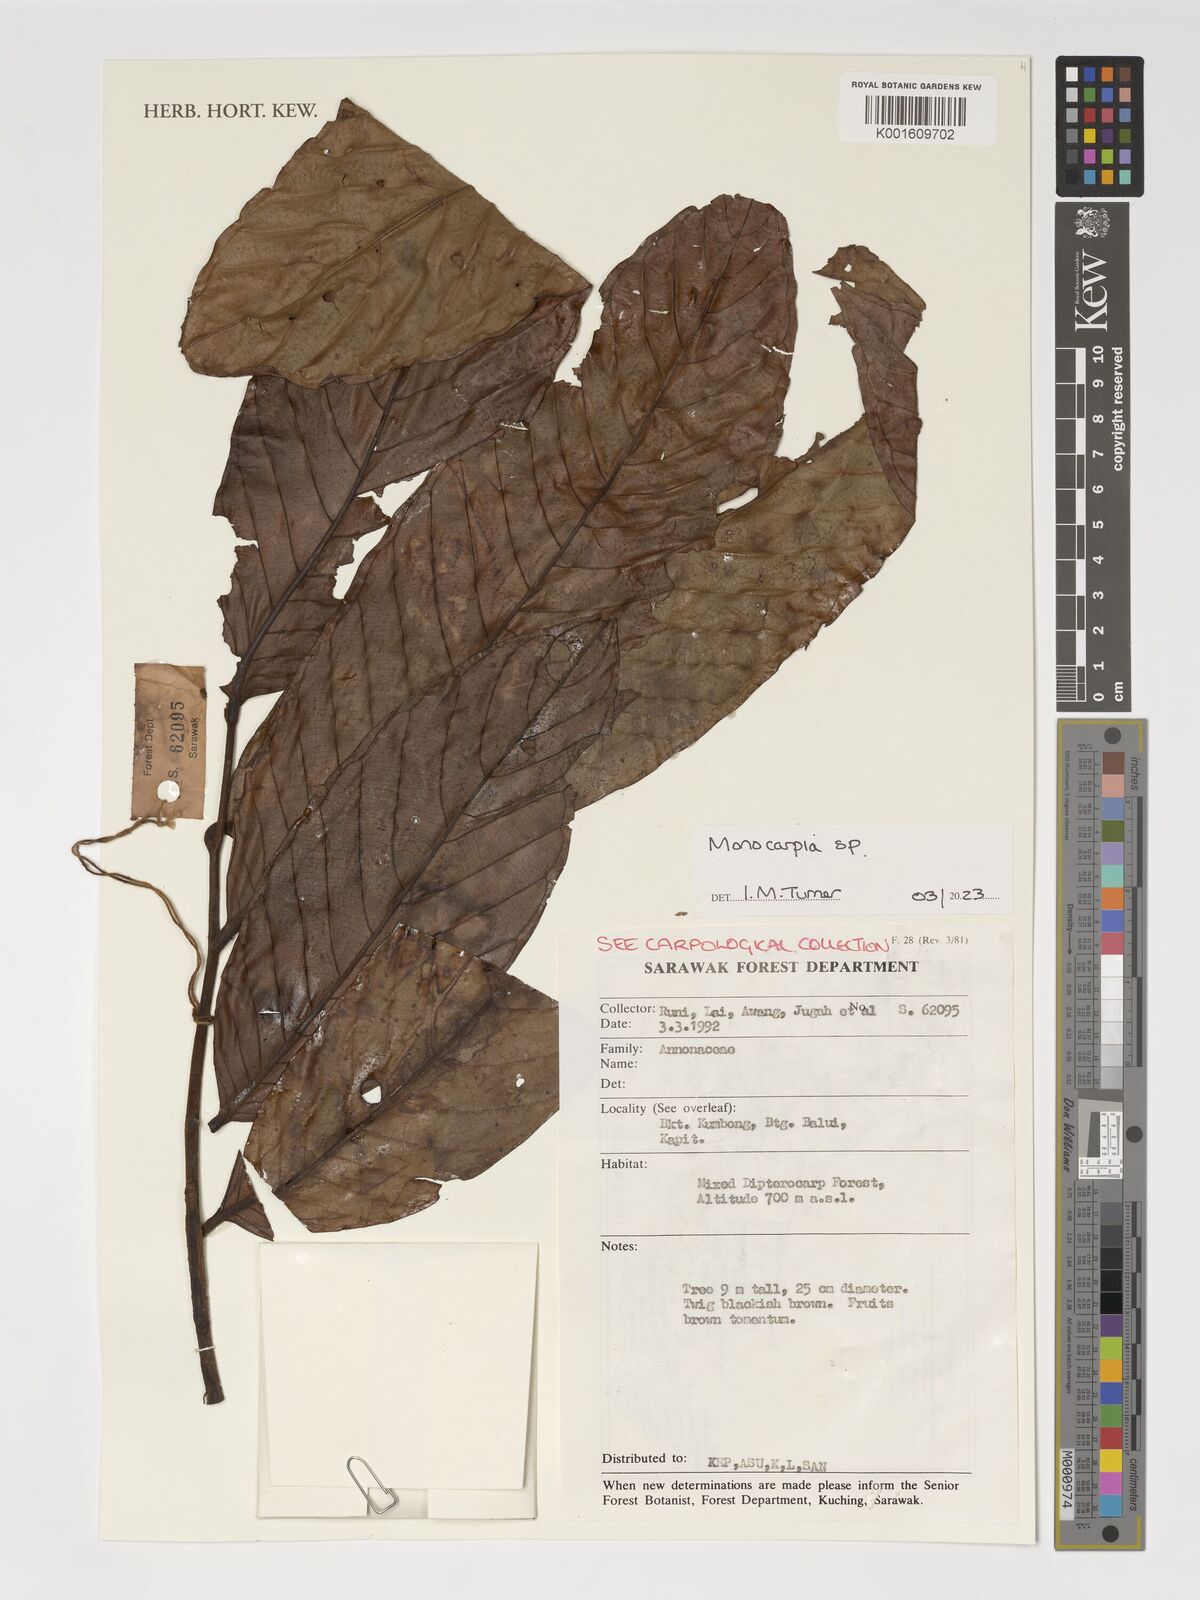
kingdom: Plantae
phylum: Tracheophyta
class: Magnoliopsida
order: Magnoliales
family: Annonaceae
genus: Monocarpia
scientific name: Monocarpia
